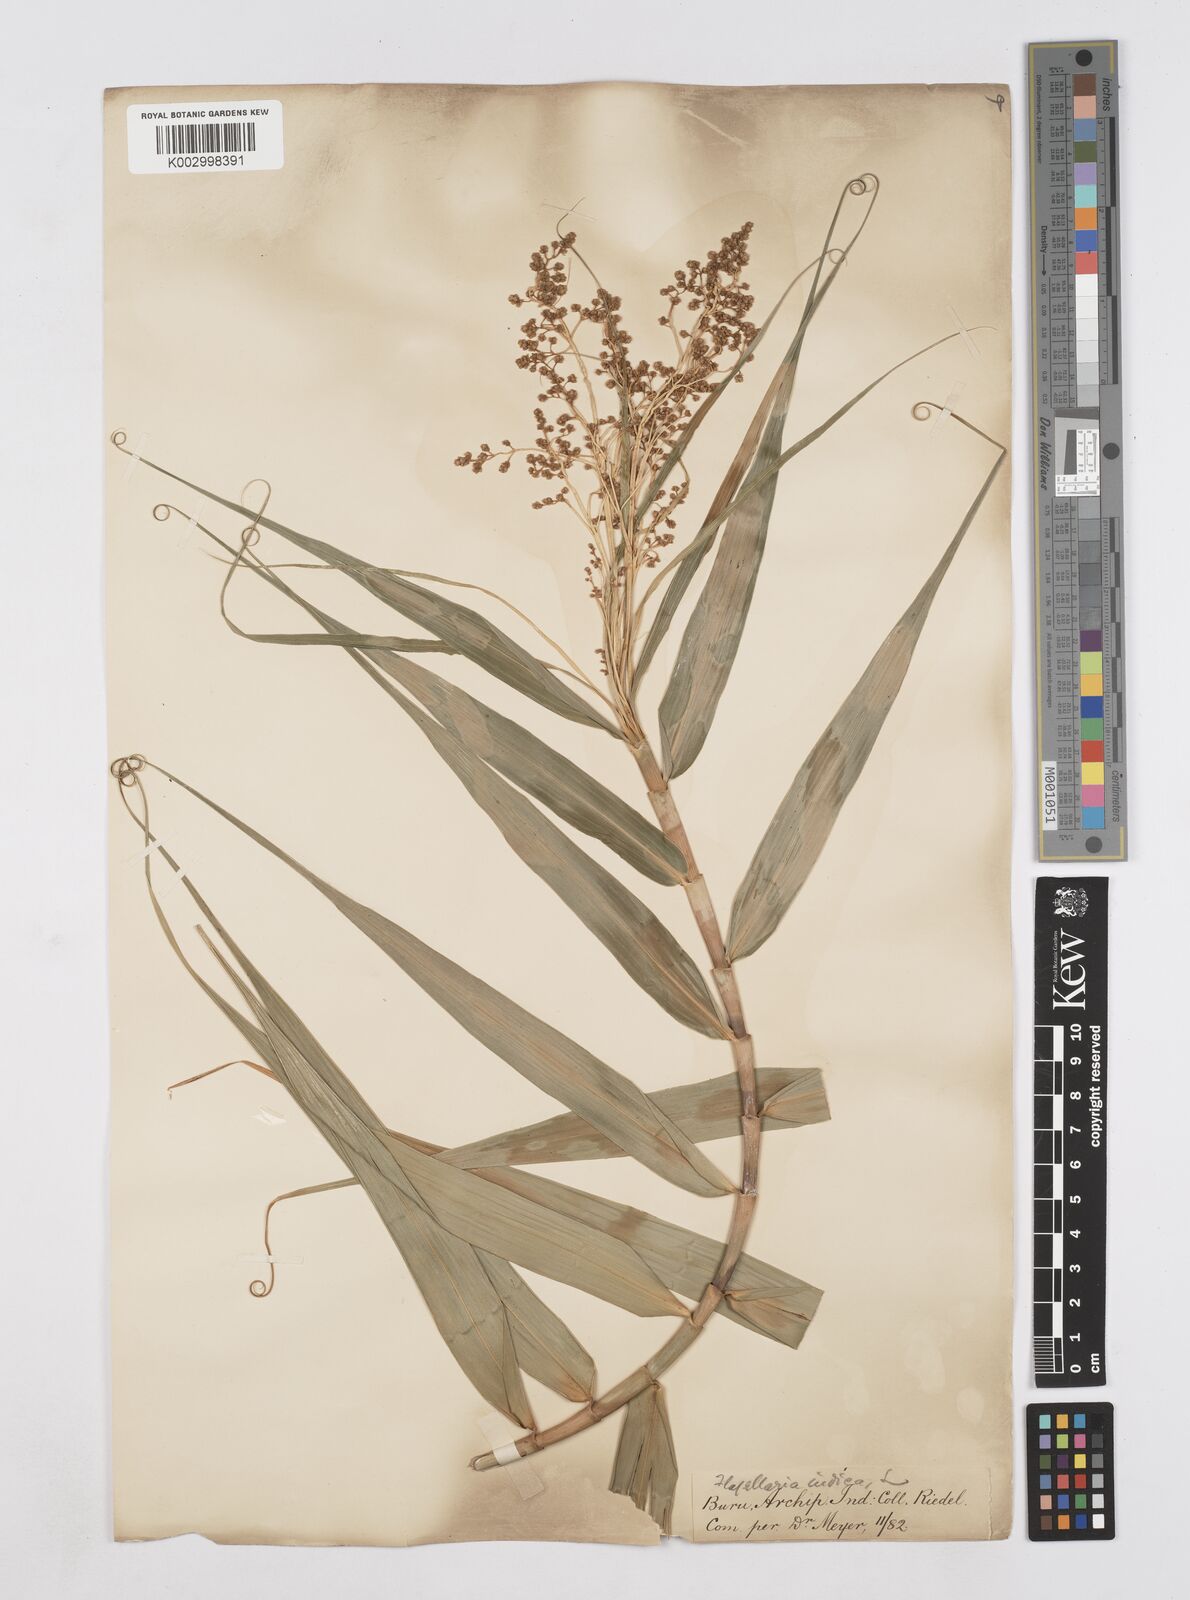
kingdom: Plantae
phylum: Tracheophyta
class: Liliopsida
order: Poales
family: Flagellariaceae
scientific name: Flagellariaceae
